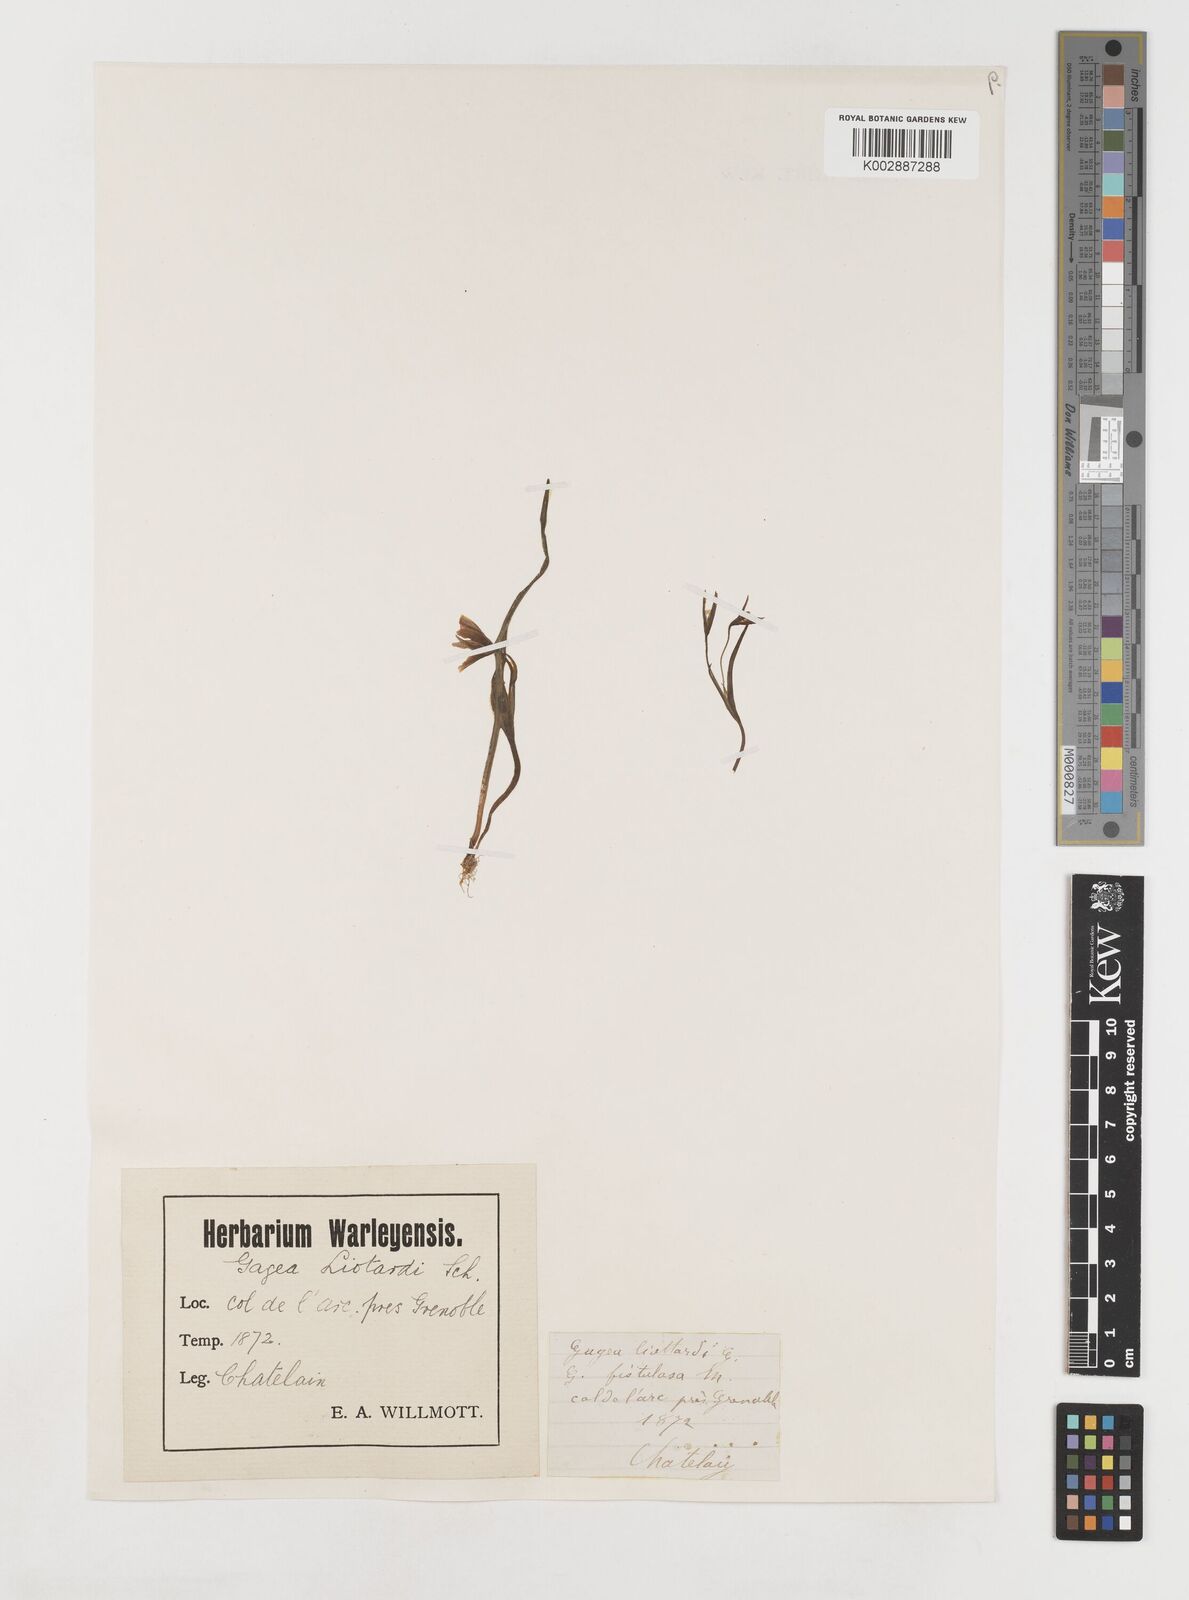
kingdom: Plantae
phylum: Tracheophyta
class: Liliopsida
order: Liliales
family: Liliaceae
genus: Gagea
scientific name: Gagea bohemica
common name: Early star-of-bethlehem
